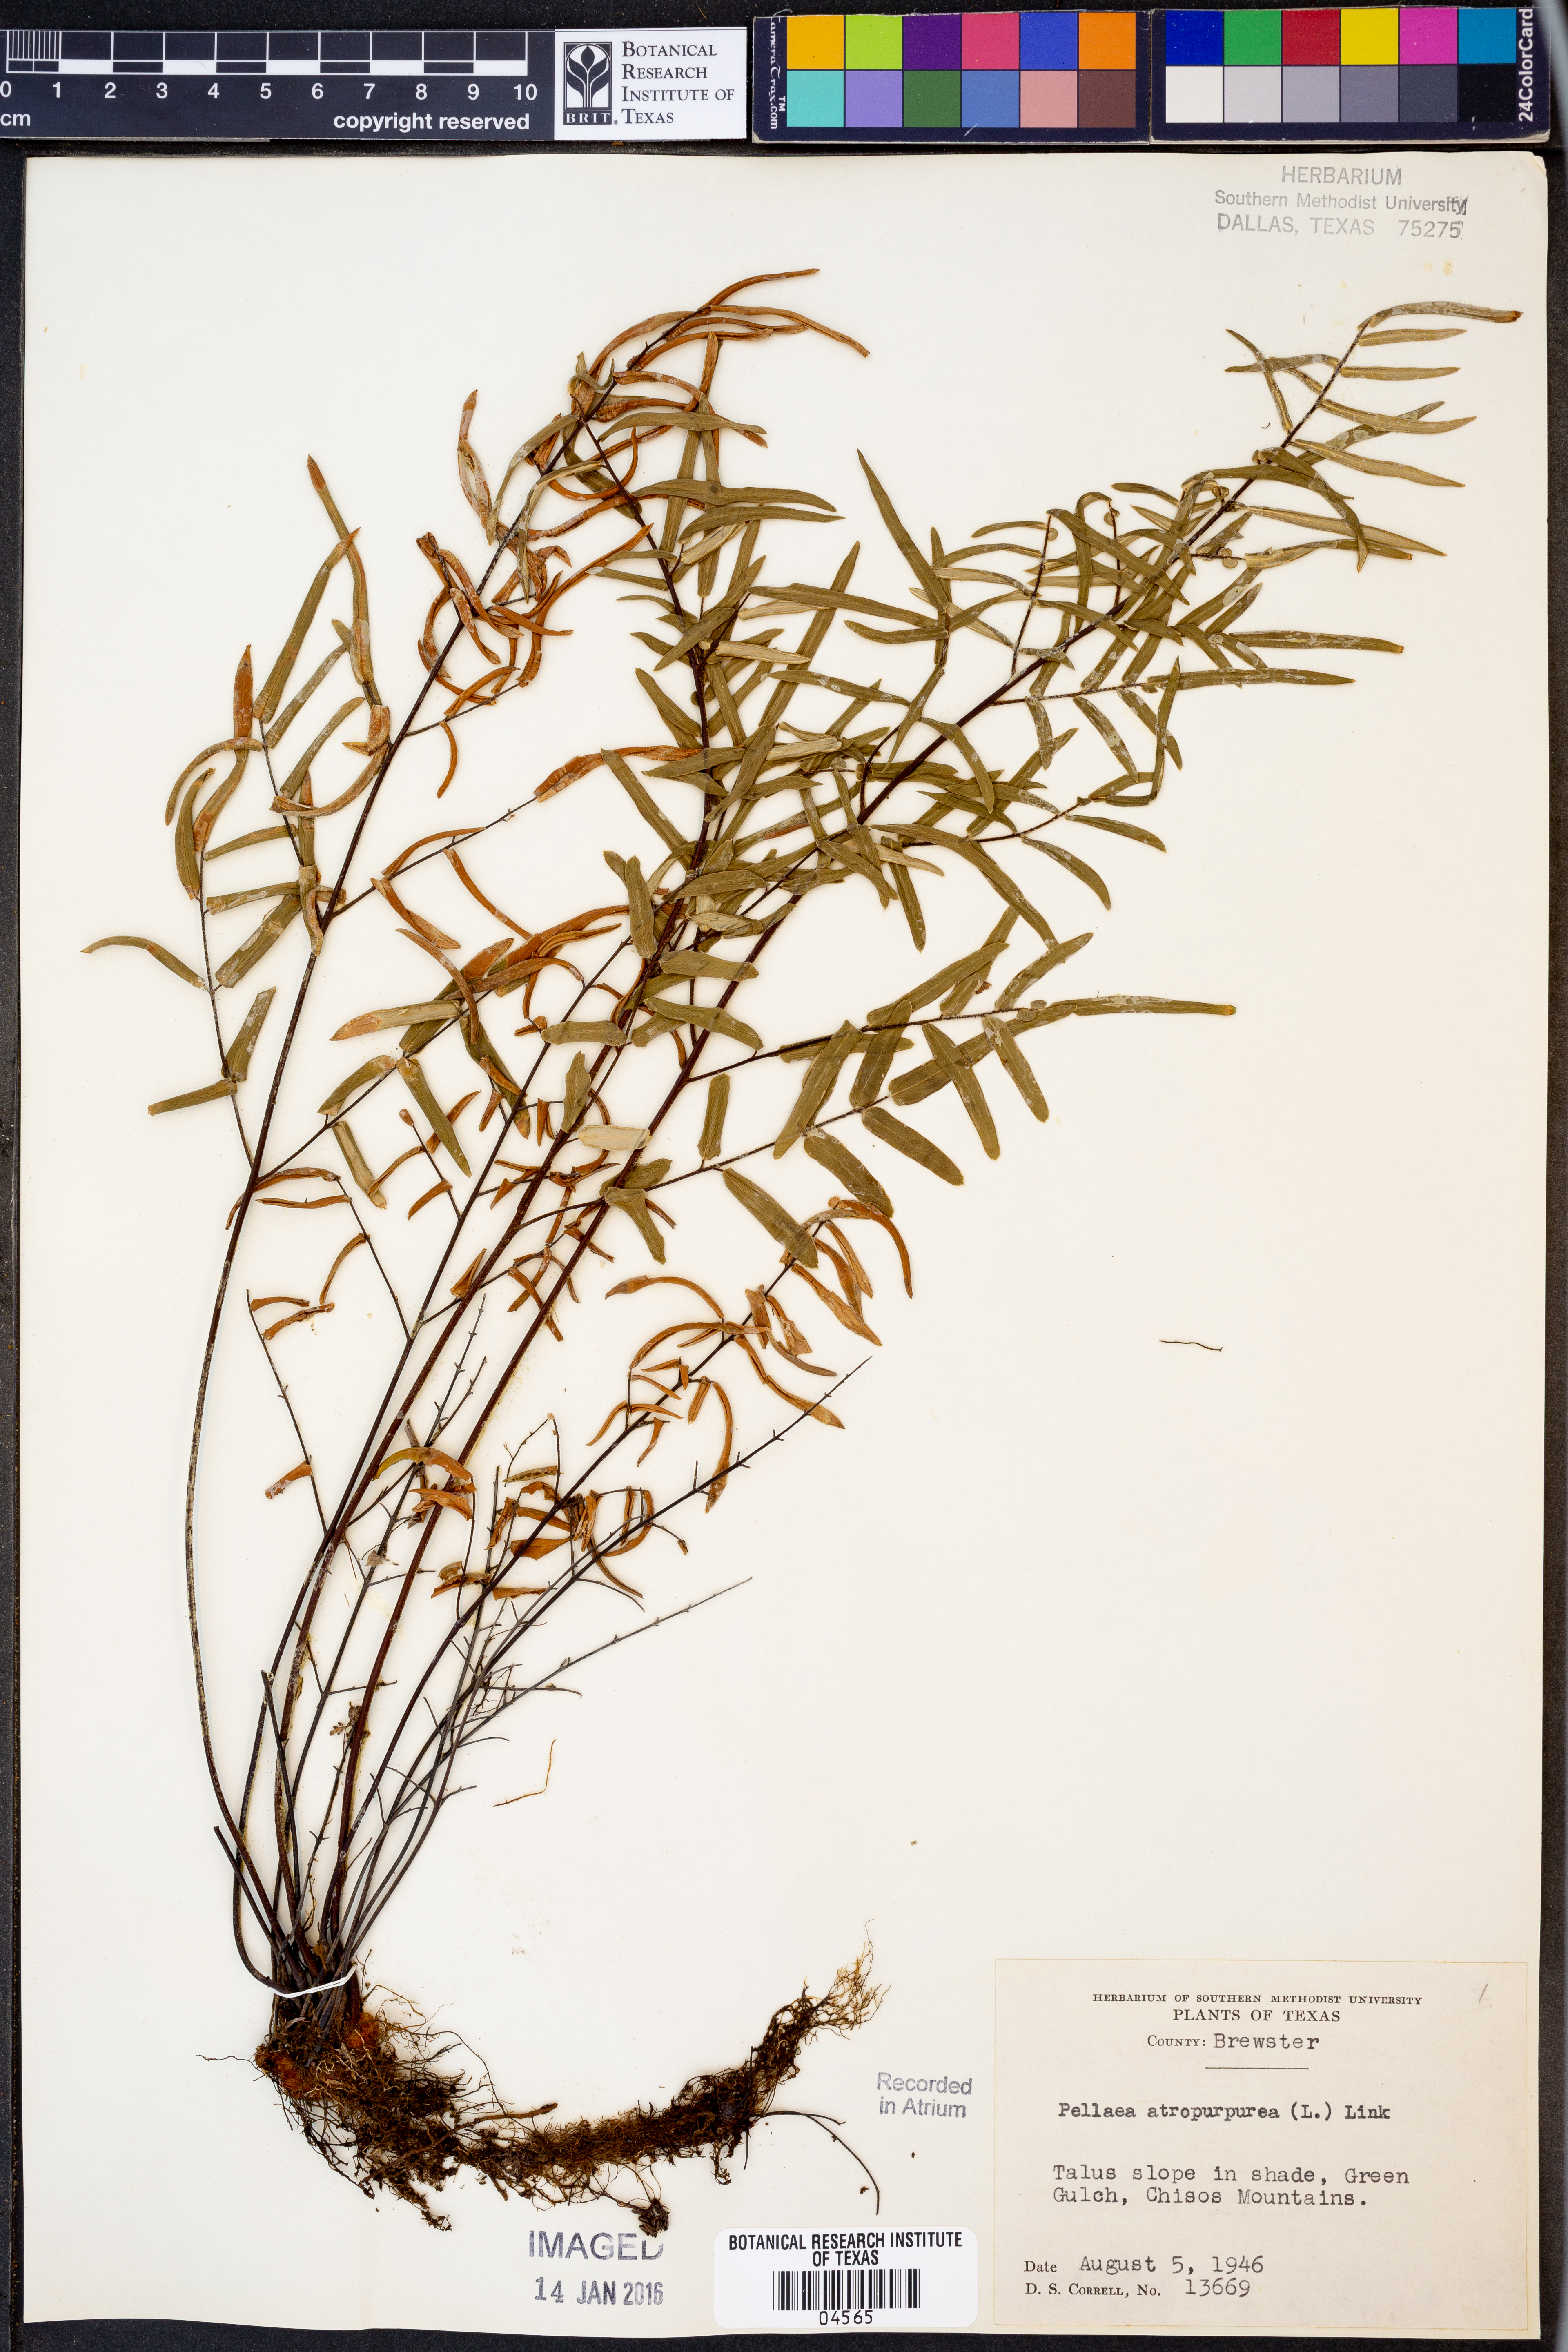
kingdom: Plantae
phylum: Tracheophyta
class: Polypodiopsida
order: Polypodiales
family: Pteridaceae
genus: Pellaea
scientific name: Pellaea atropurpurea
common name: Hairy cliffbrake
